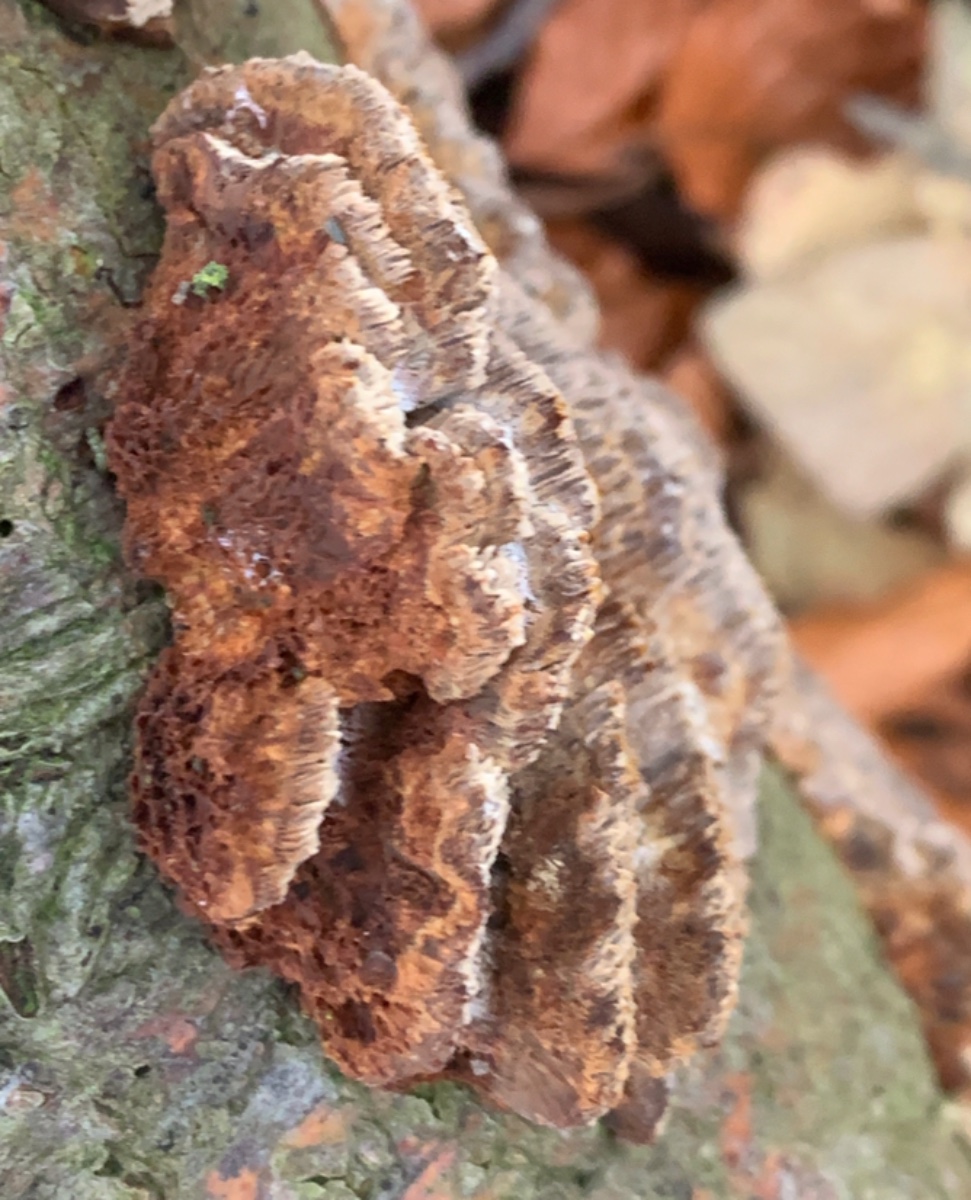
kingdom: Fungi
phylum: Basidiomycota
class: Agaricomycetes
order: Hymenochaetales
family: Hymenochaetaceae
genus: Mensularia
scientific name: Mensularia nodulosa
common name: bøge-spejlporesvamp
